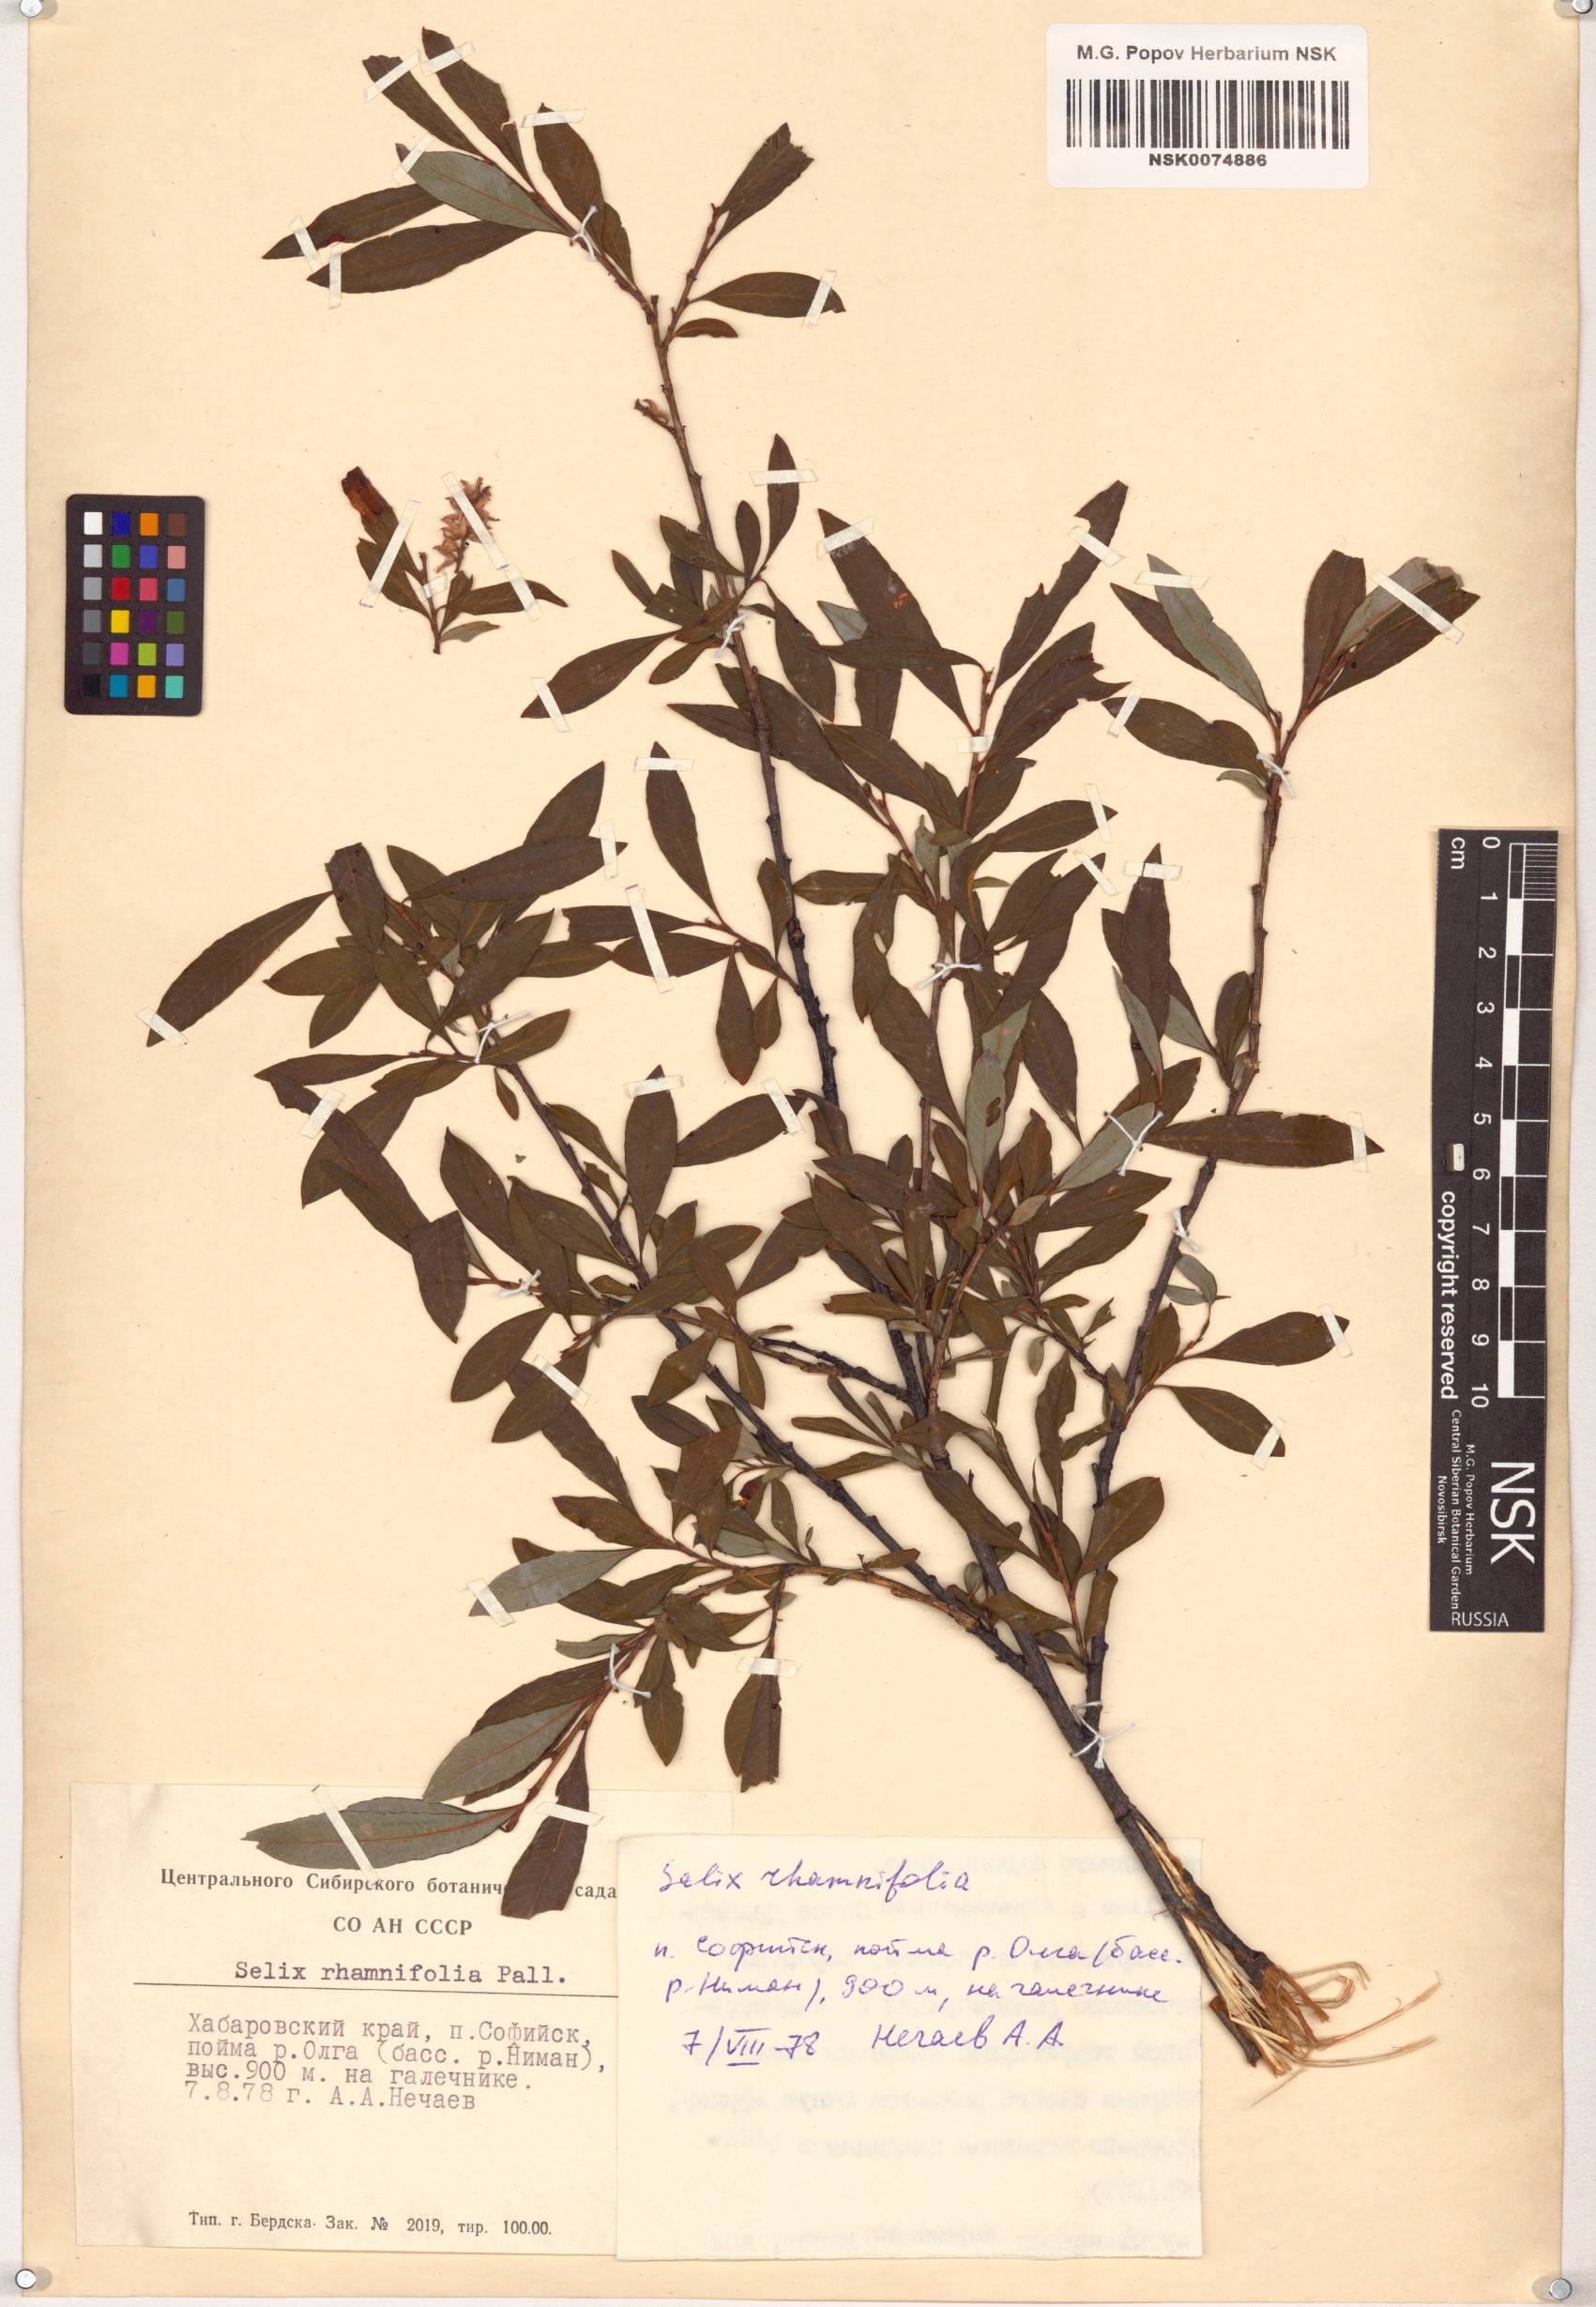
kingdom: Plantae
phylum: Tracheophyta
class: Magnoliopsida
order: Malpighiales
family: Salicaceae
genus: Salix
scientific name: Salix rhamnifolia
